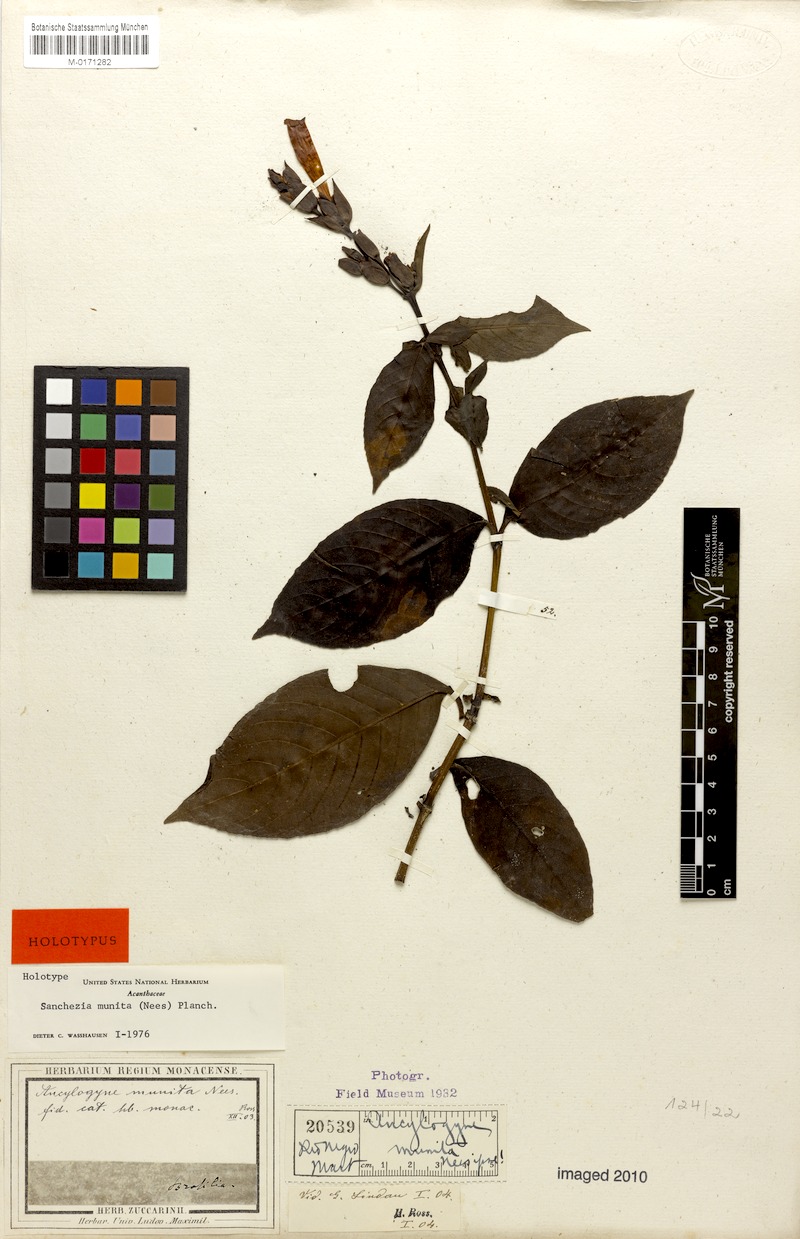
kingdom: Plantae
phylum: Tracheophyta
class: Magnoliopsida
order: Lamiales
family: Acanthaceae
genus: Sanchezia
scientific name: Sanchezia munita
